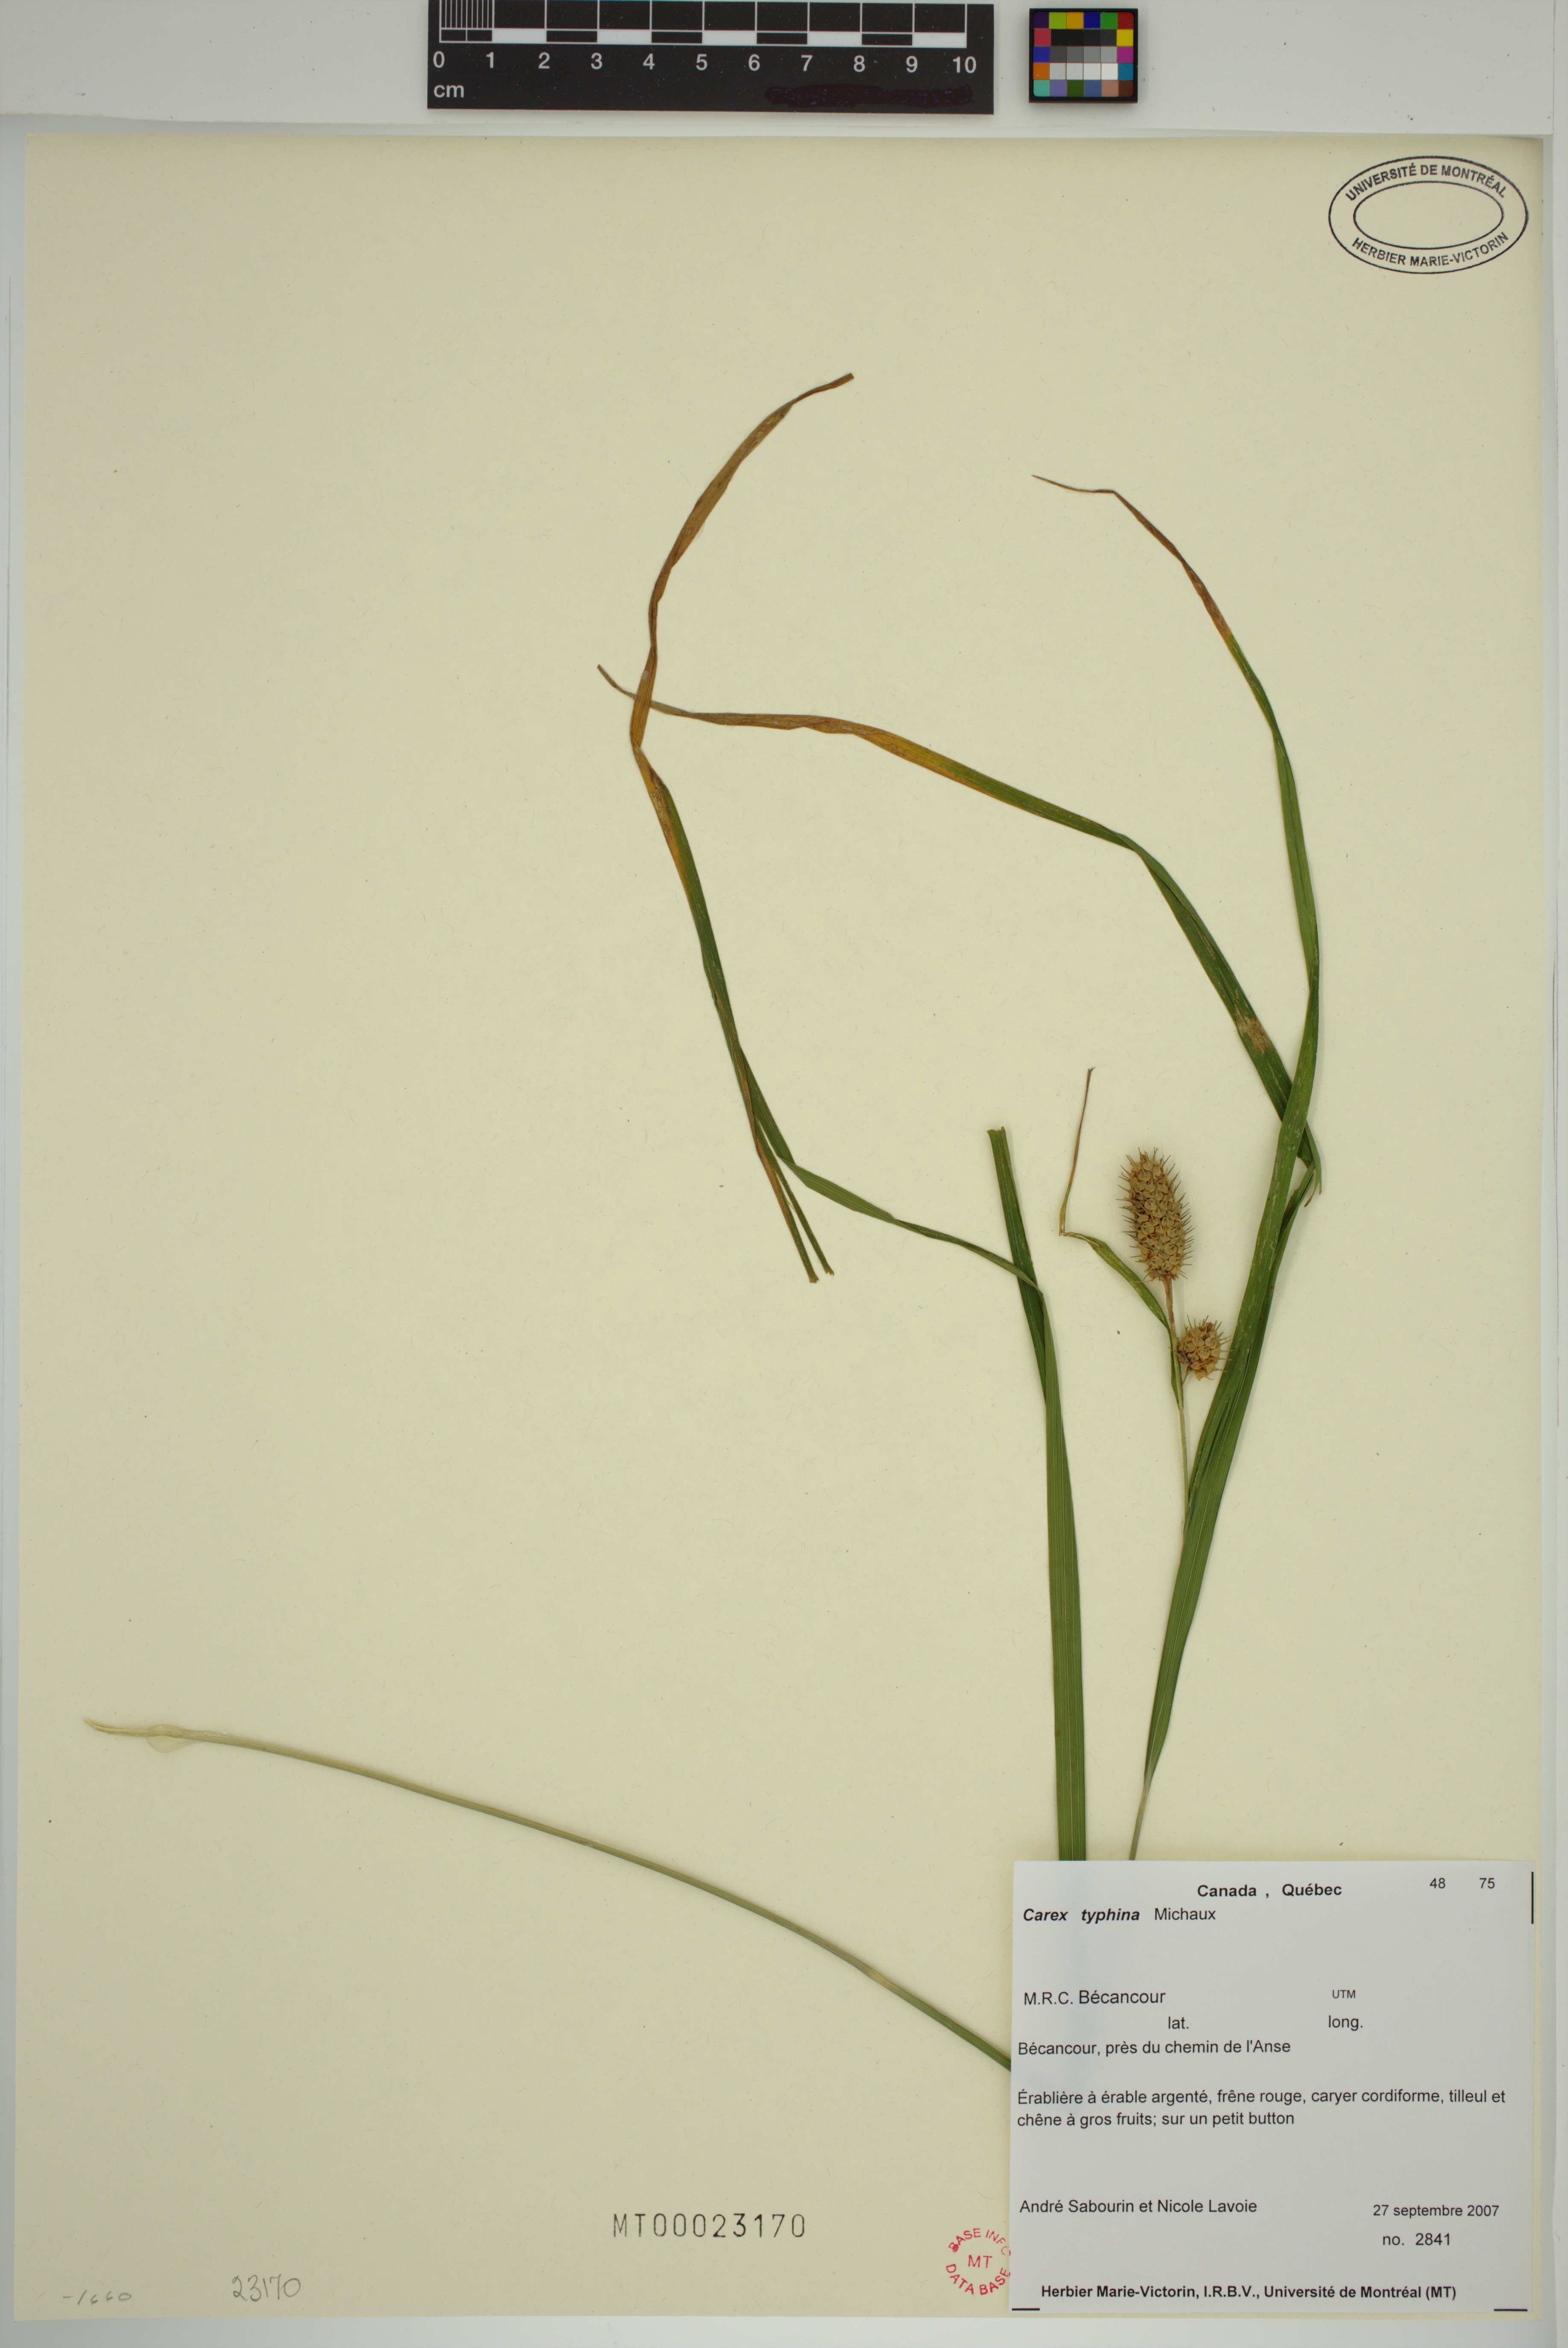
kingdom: Plantae
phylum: Tracheophyta
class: Liliopsida
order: Poales
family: Cyperaceae
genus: Carex
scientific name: Carex typhina
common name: Cattail sedge
